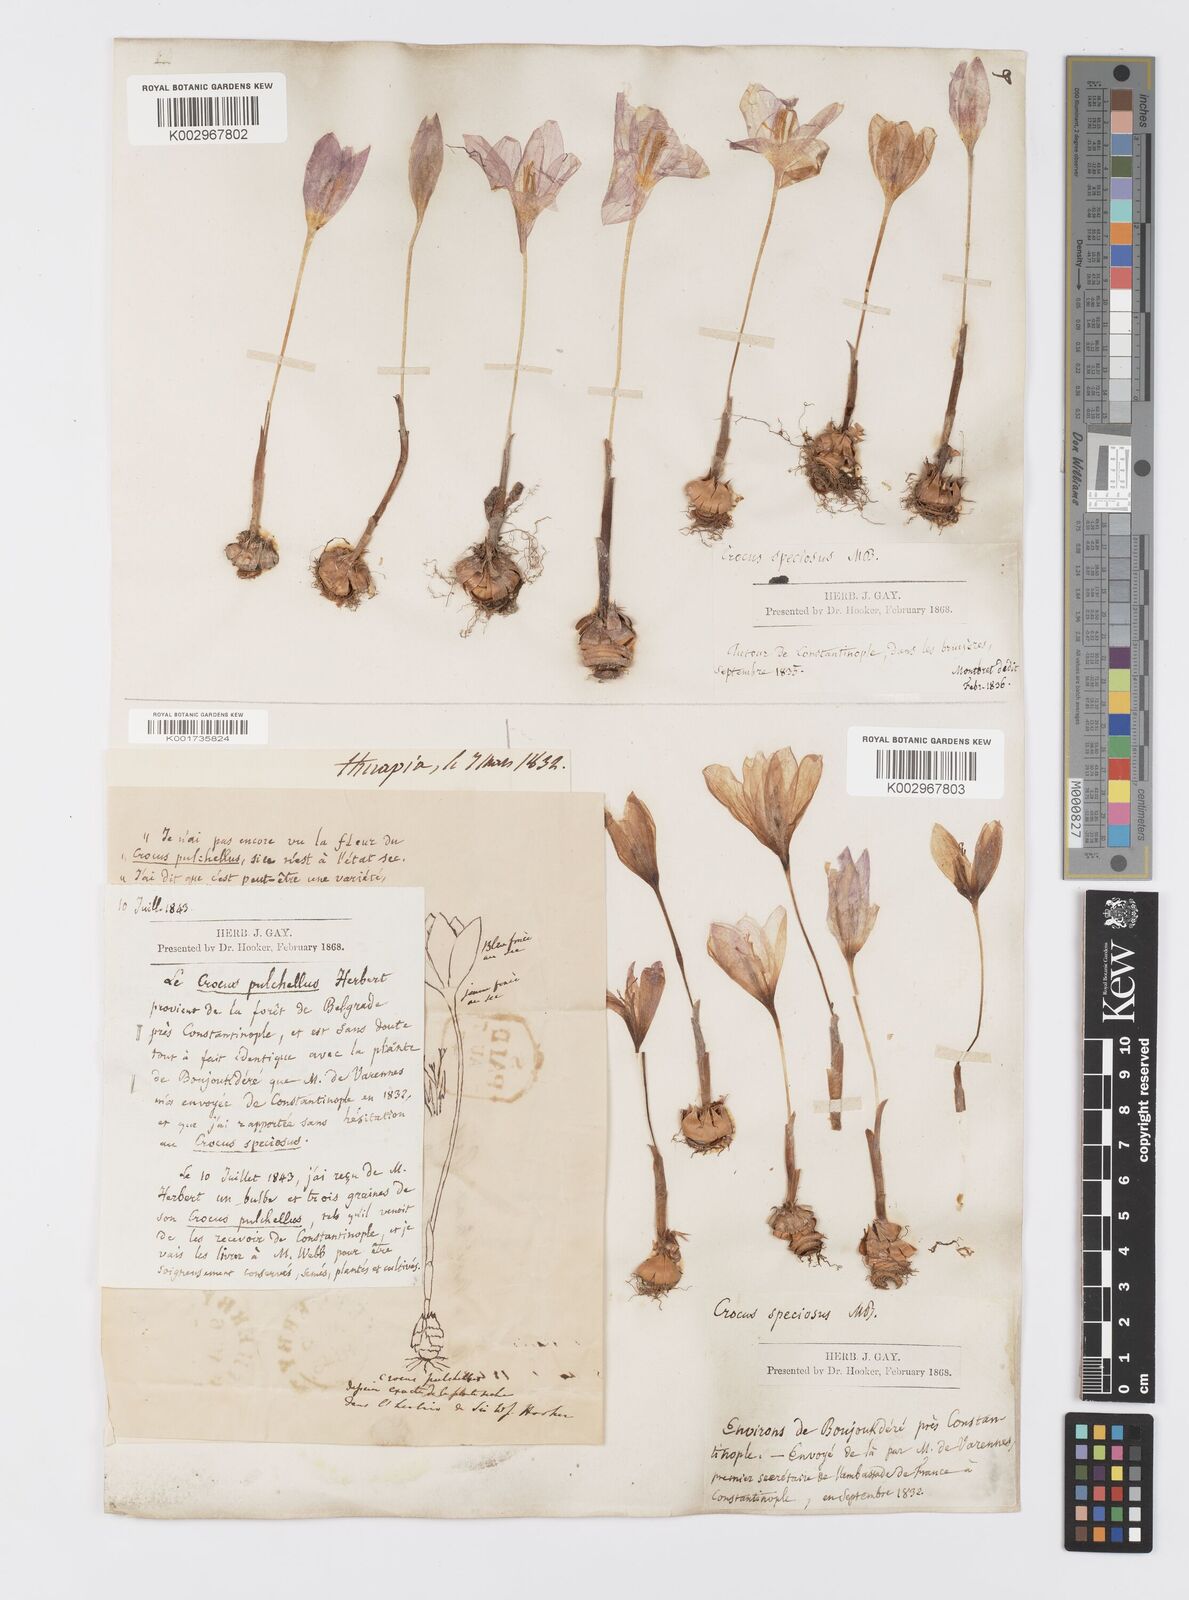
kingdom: Plantae
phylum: Tracheophyta
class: Liliopsida
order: Asparagales
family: Iridaceae
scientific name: Iridaceae
